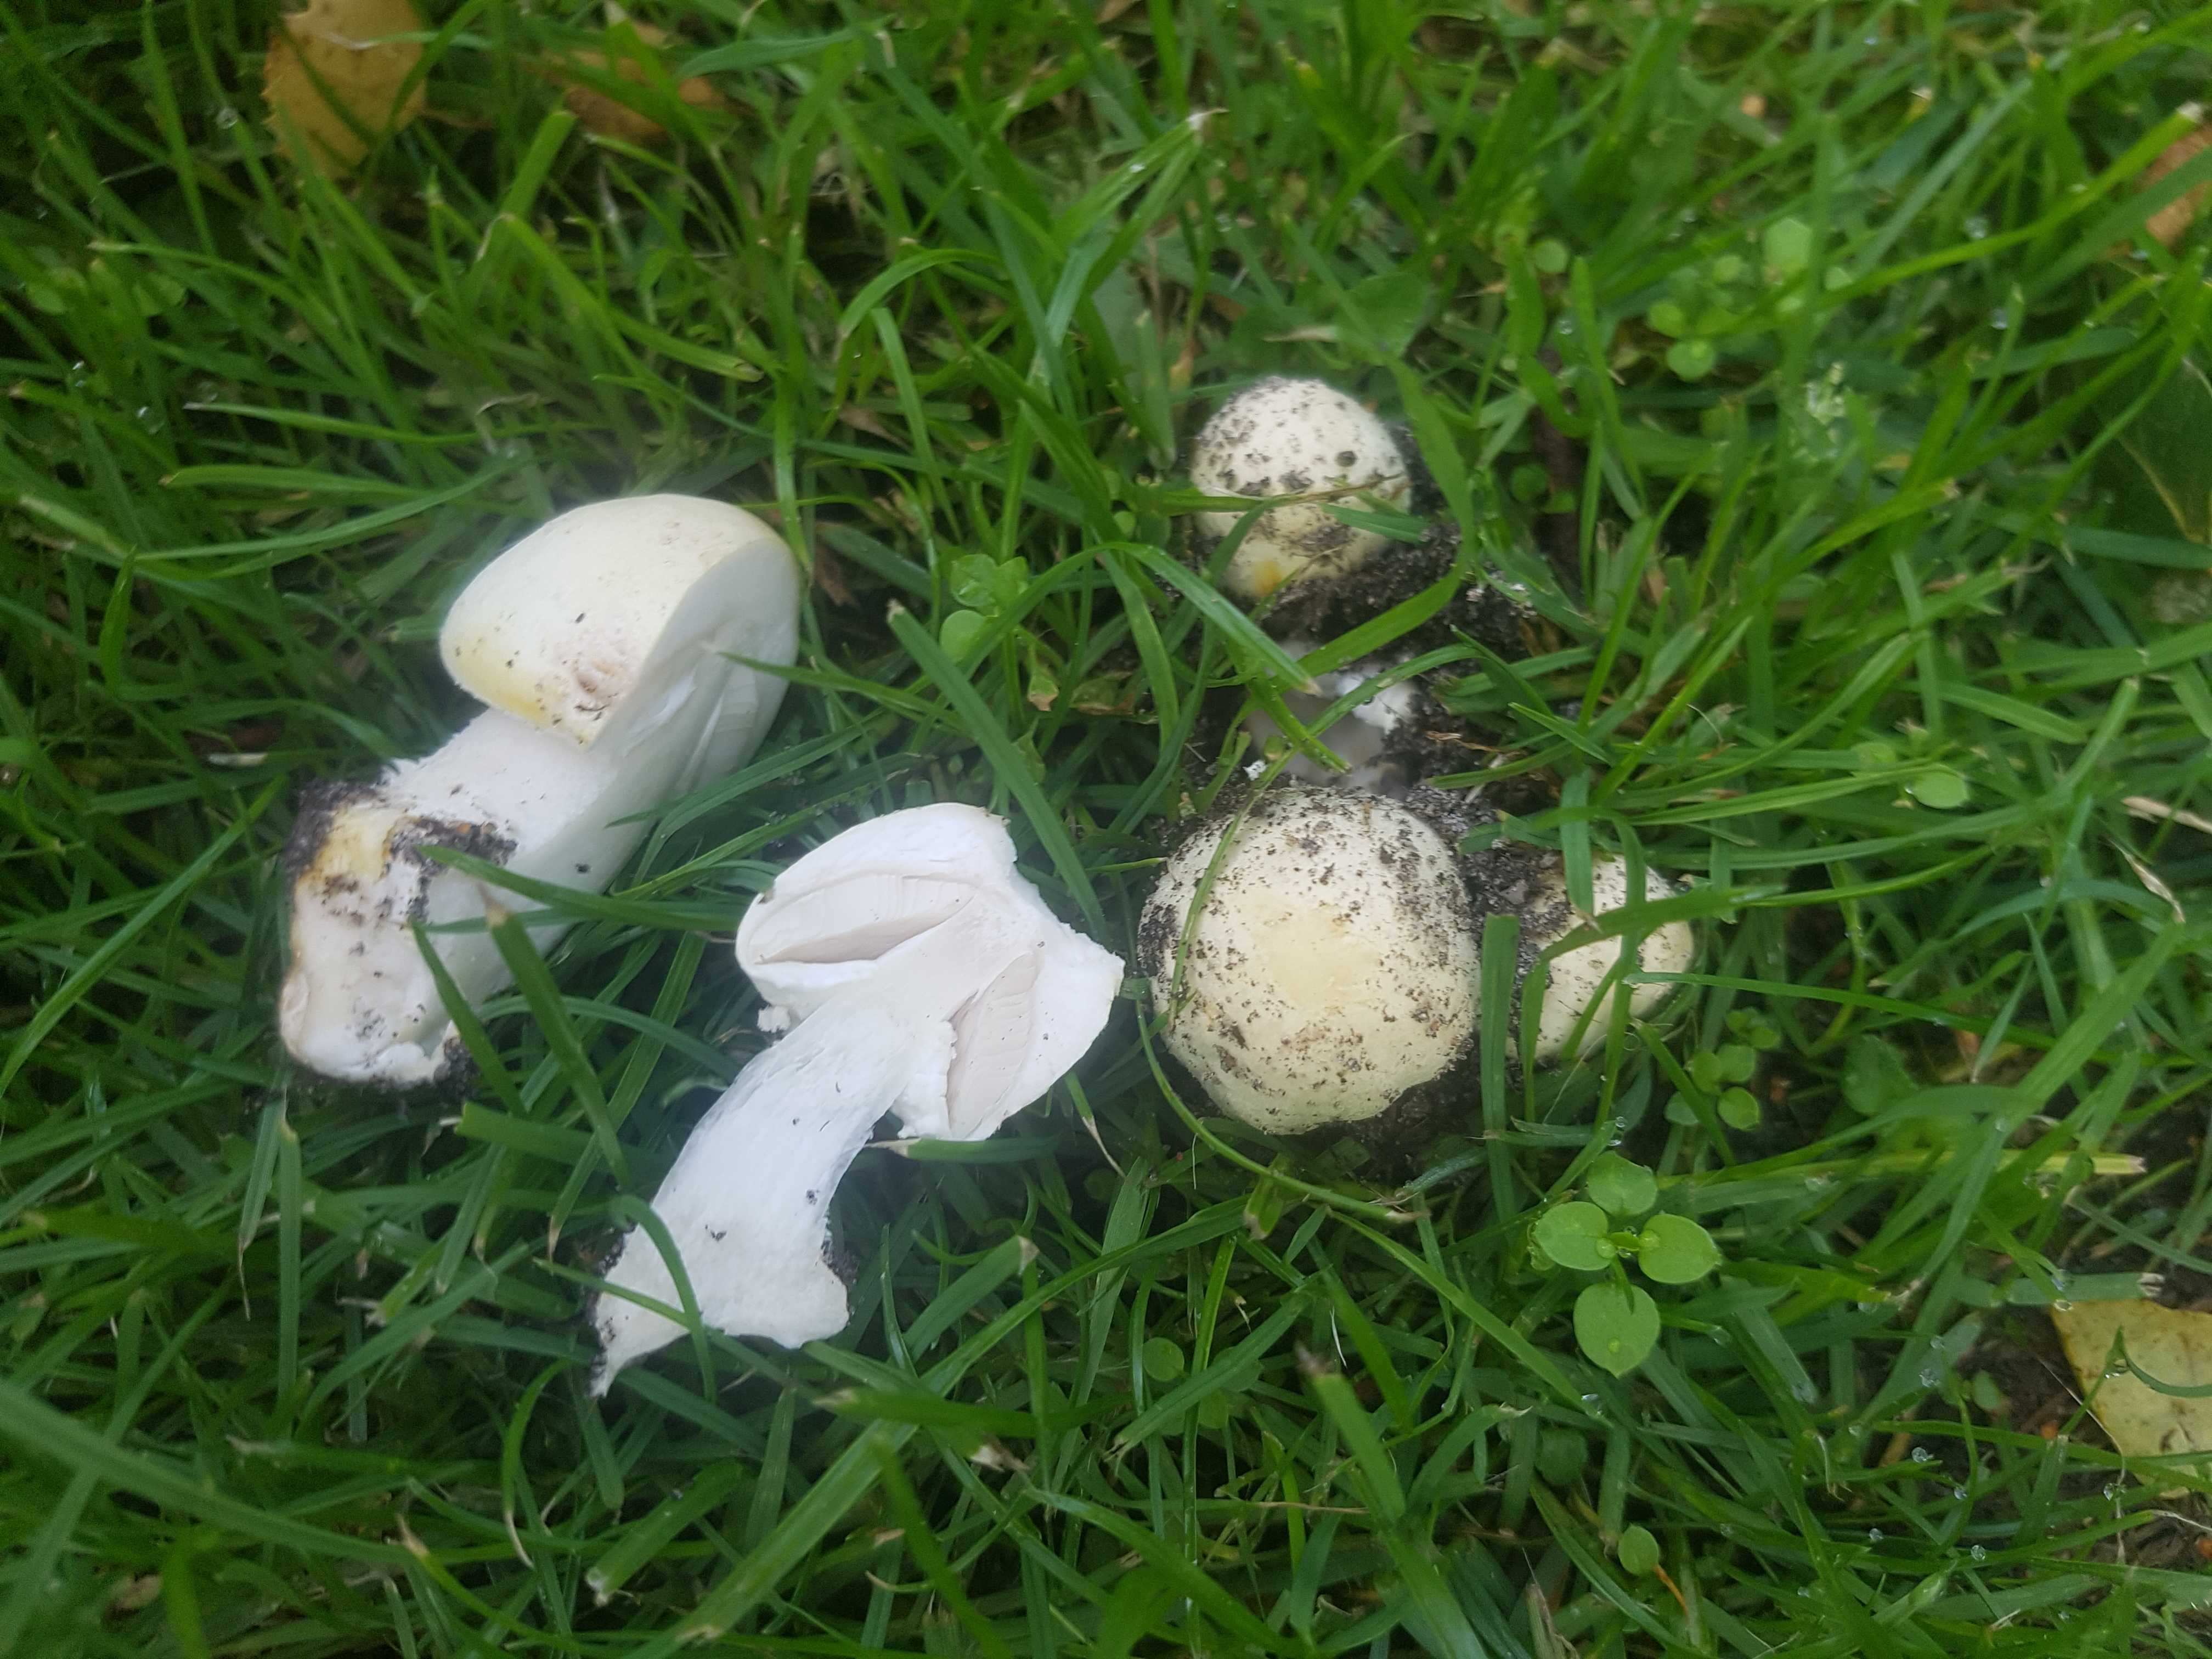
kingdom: Fungi
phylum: Basidiomycota
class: Agaricomycetes
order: Agaricales
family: Agaricaceae
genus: Agaricus
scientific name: Agaricus xanthodermus
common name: karbol-champignon
